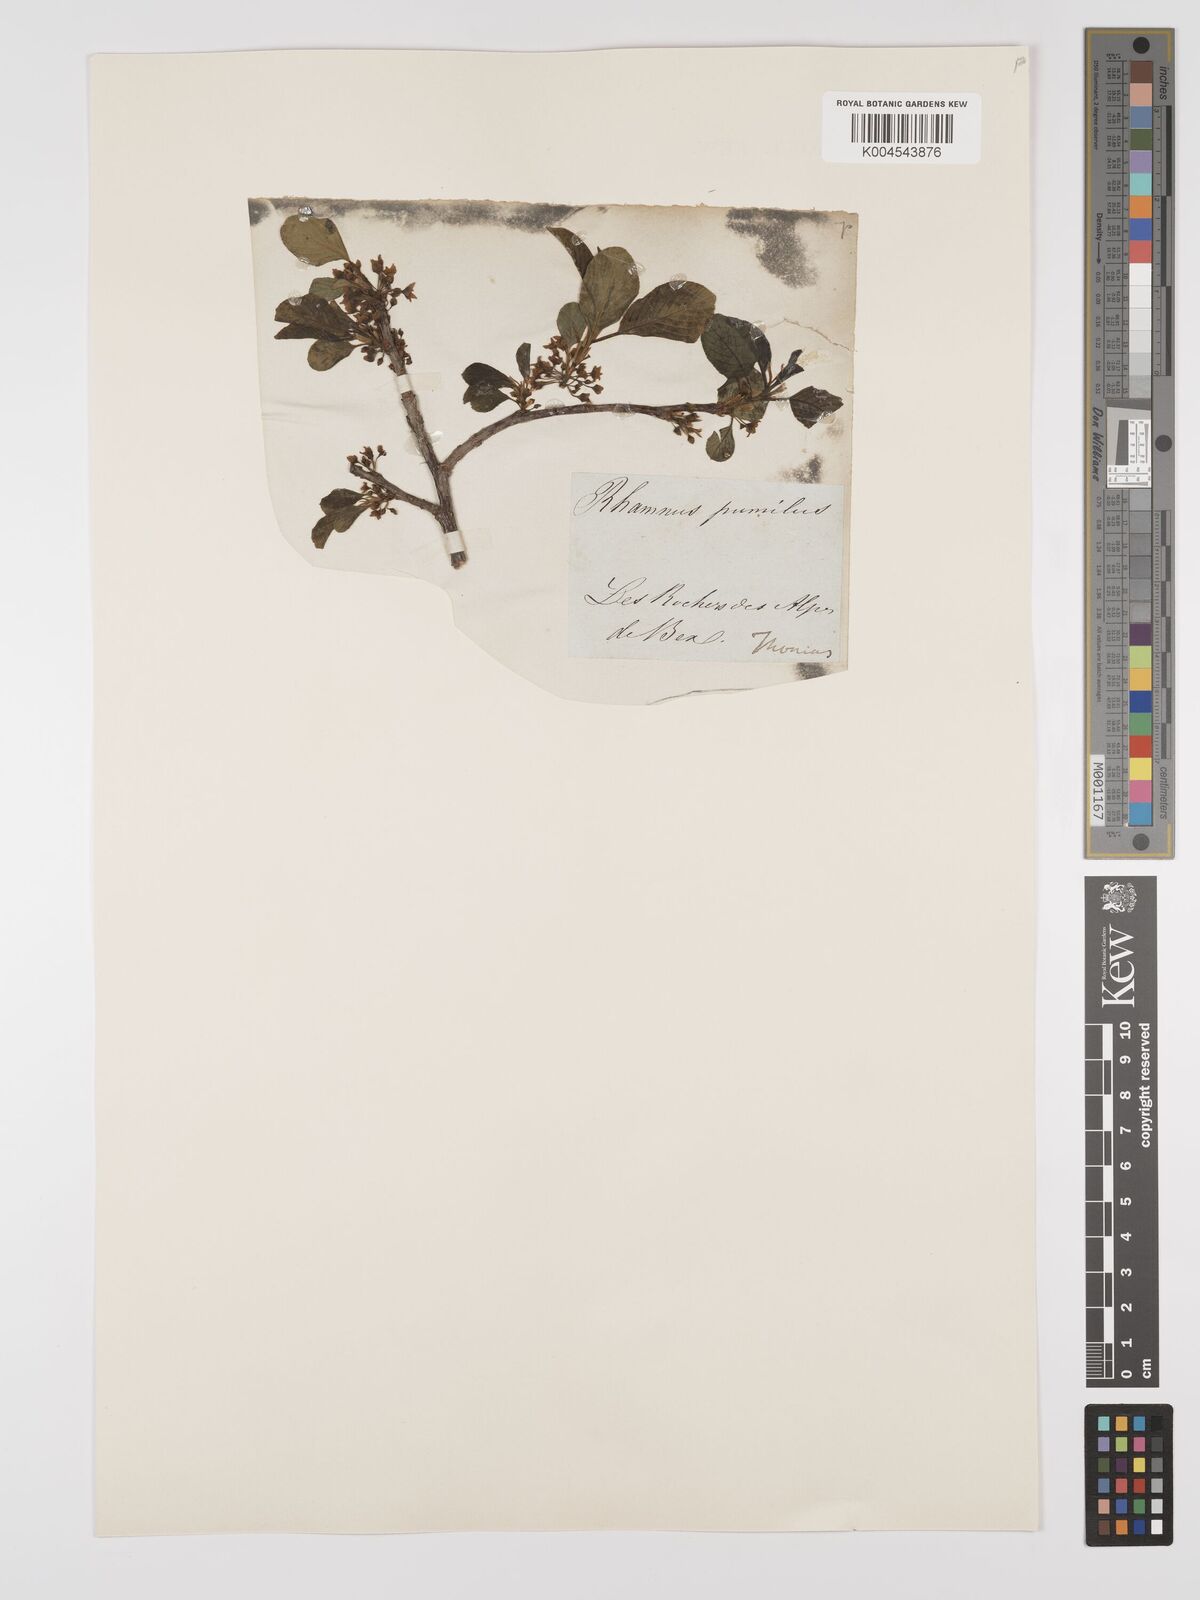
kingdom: Plantae
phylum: Tracheophyta
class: Magnoliopsida
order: Rosales
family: Rhamnaceae
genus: Rhamnus
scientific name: Rhamnus
